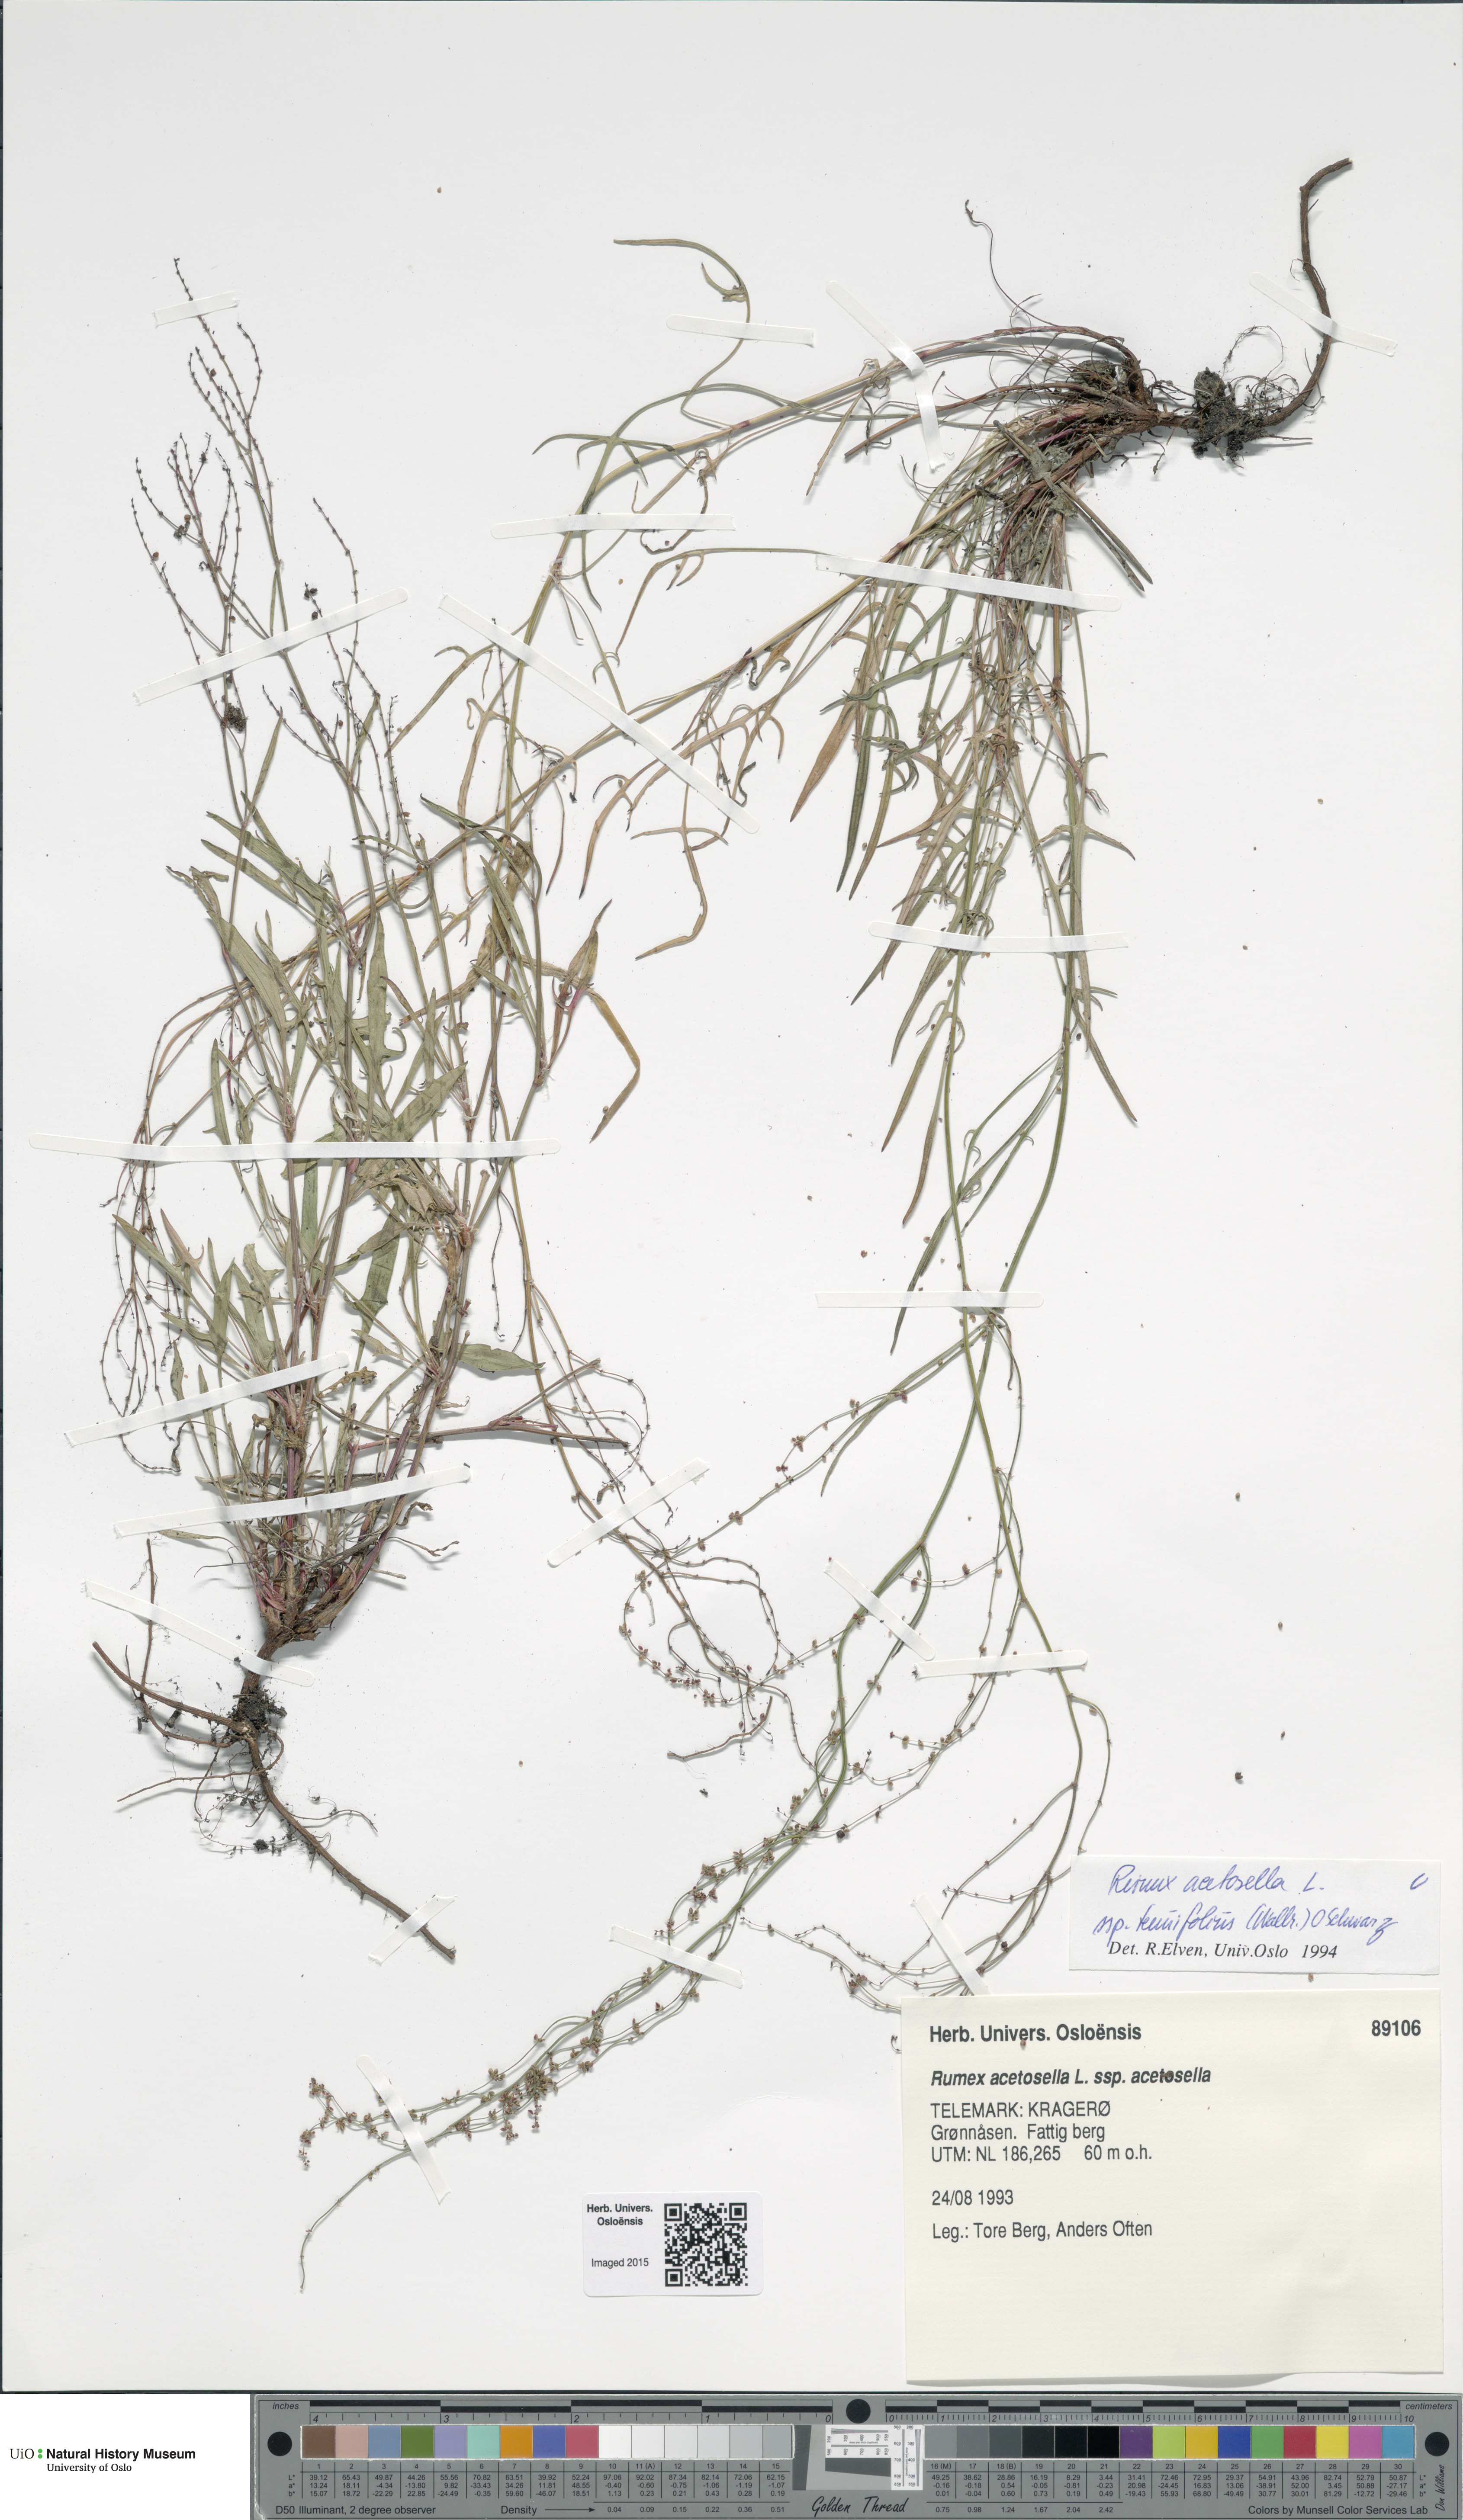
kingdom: Plantae
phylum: Tracheophyta
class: Magnoliopsida
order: Caryophyllales
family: Polygonaceae
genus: Rumex
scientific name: Rumex acetosella
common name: Common sheep sorrel
